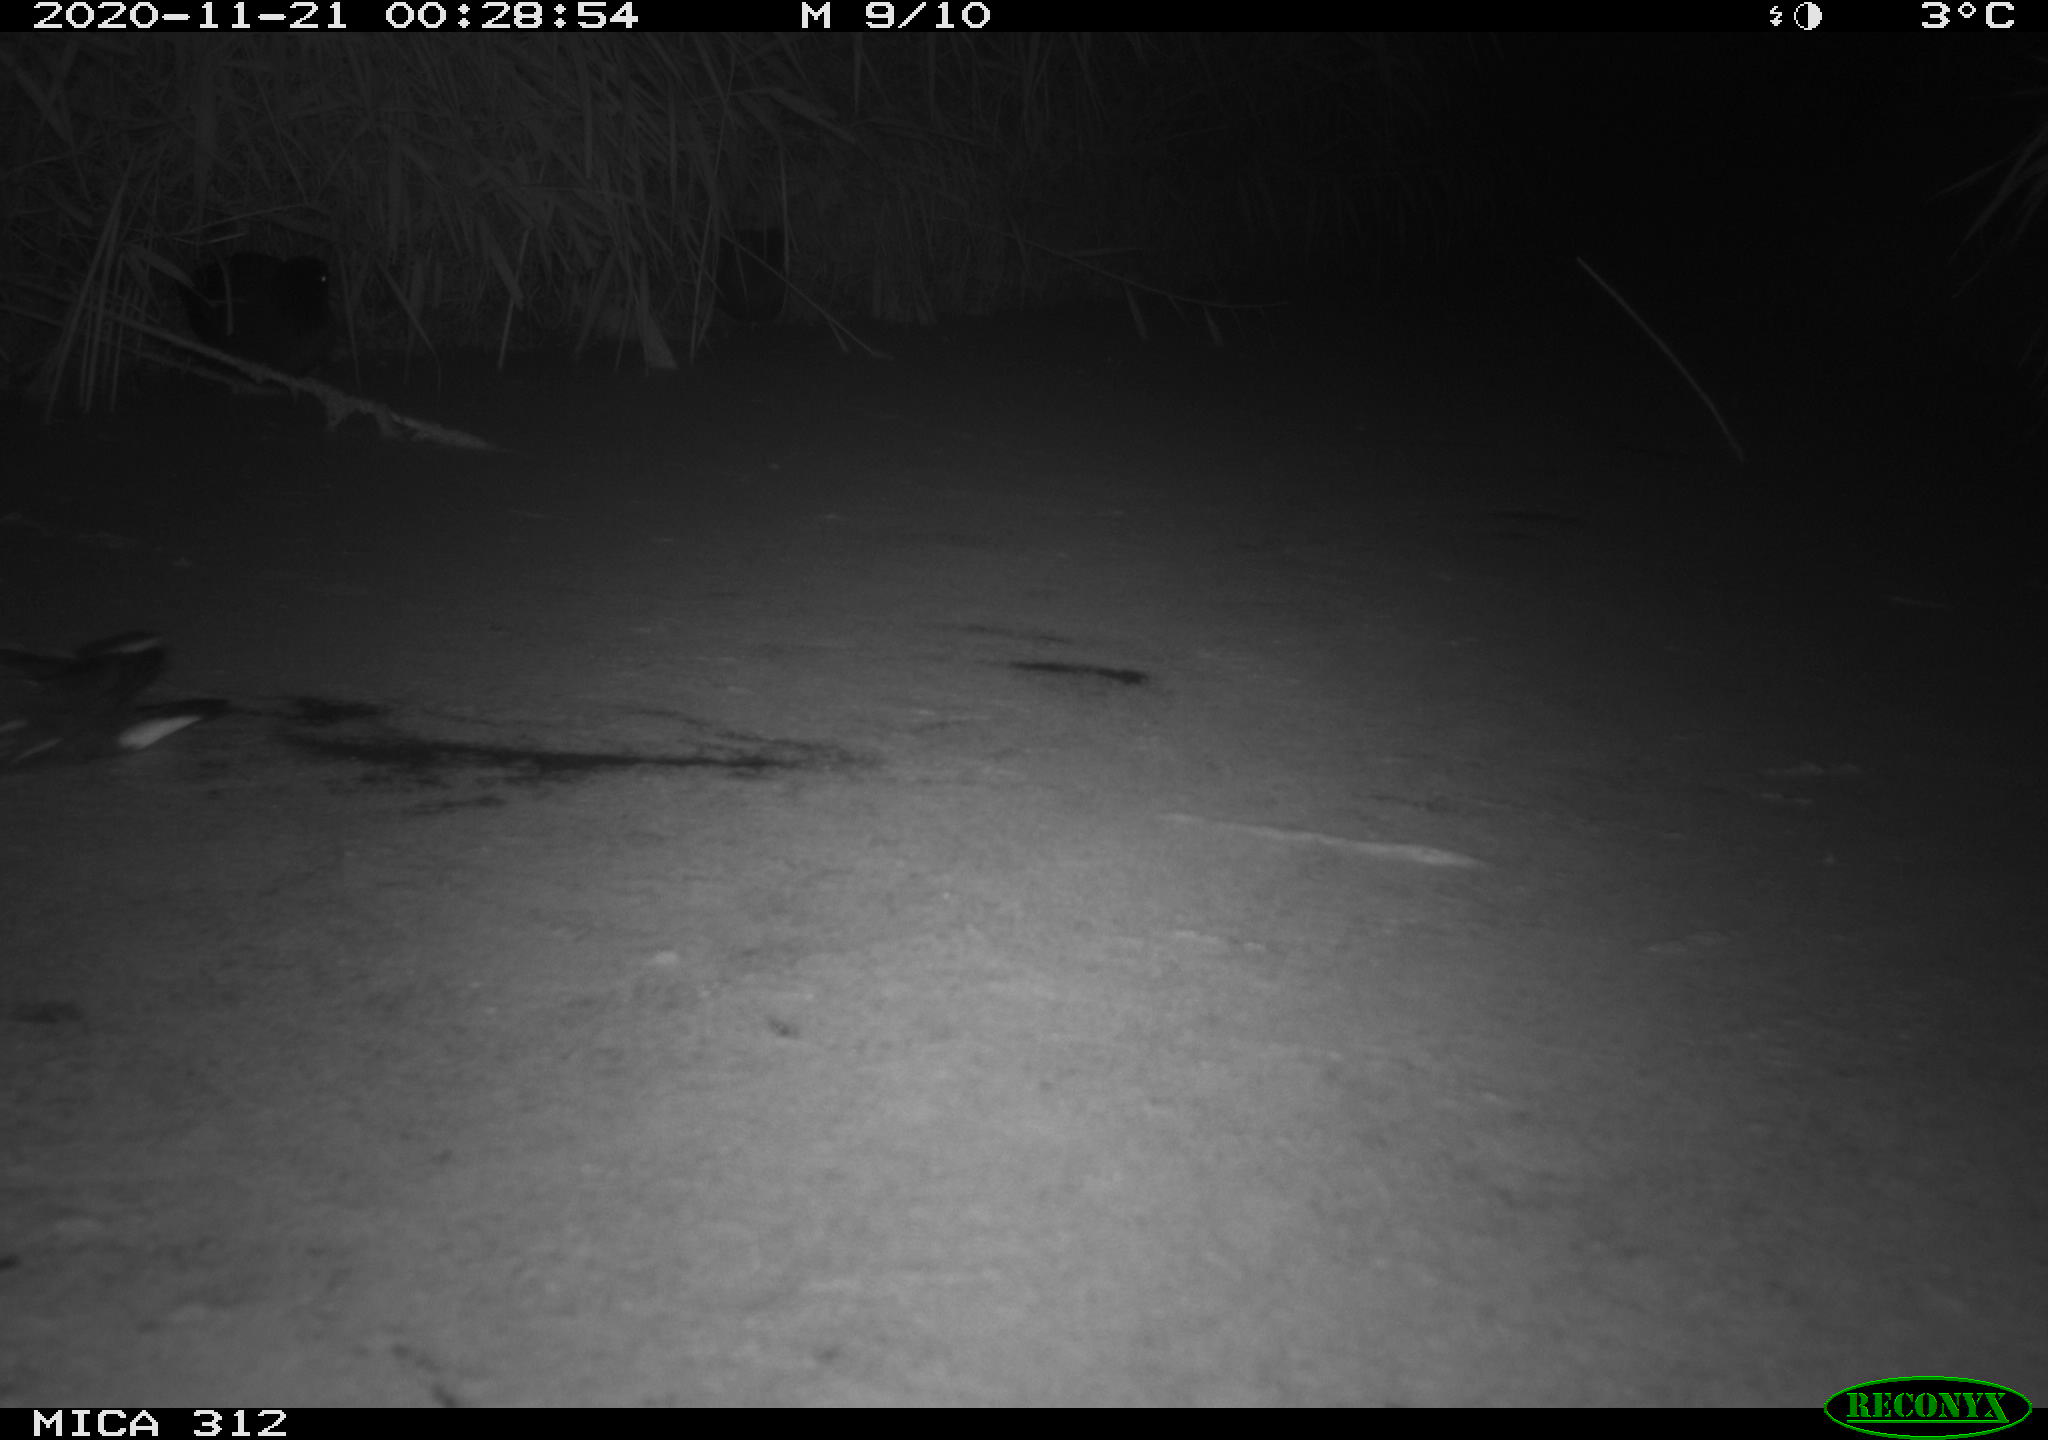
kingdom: Animalia
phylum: Chordata
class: Aves
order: Gruiformes
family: Rallidae
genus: Gallinula
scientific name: Gallinula chloropus
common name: Common moorhen
